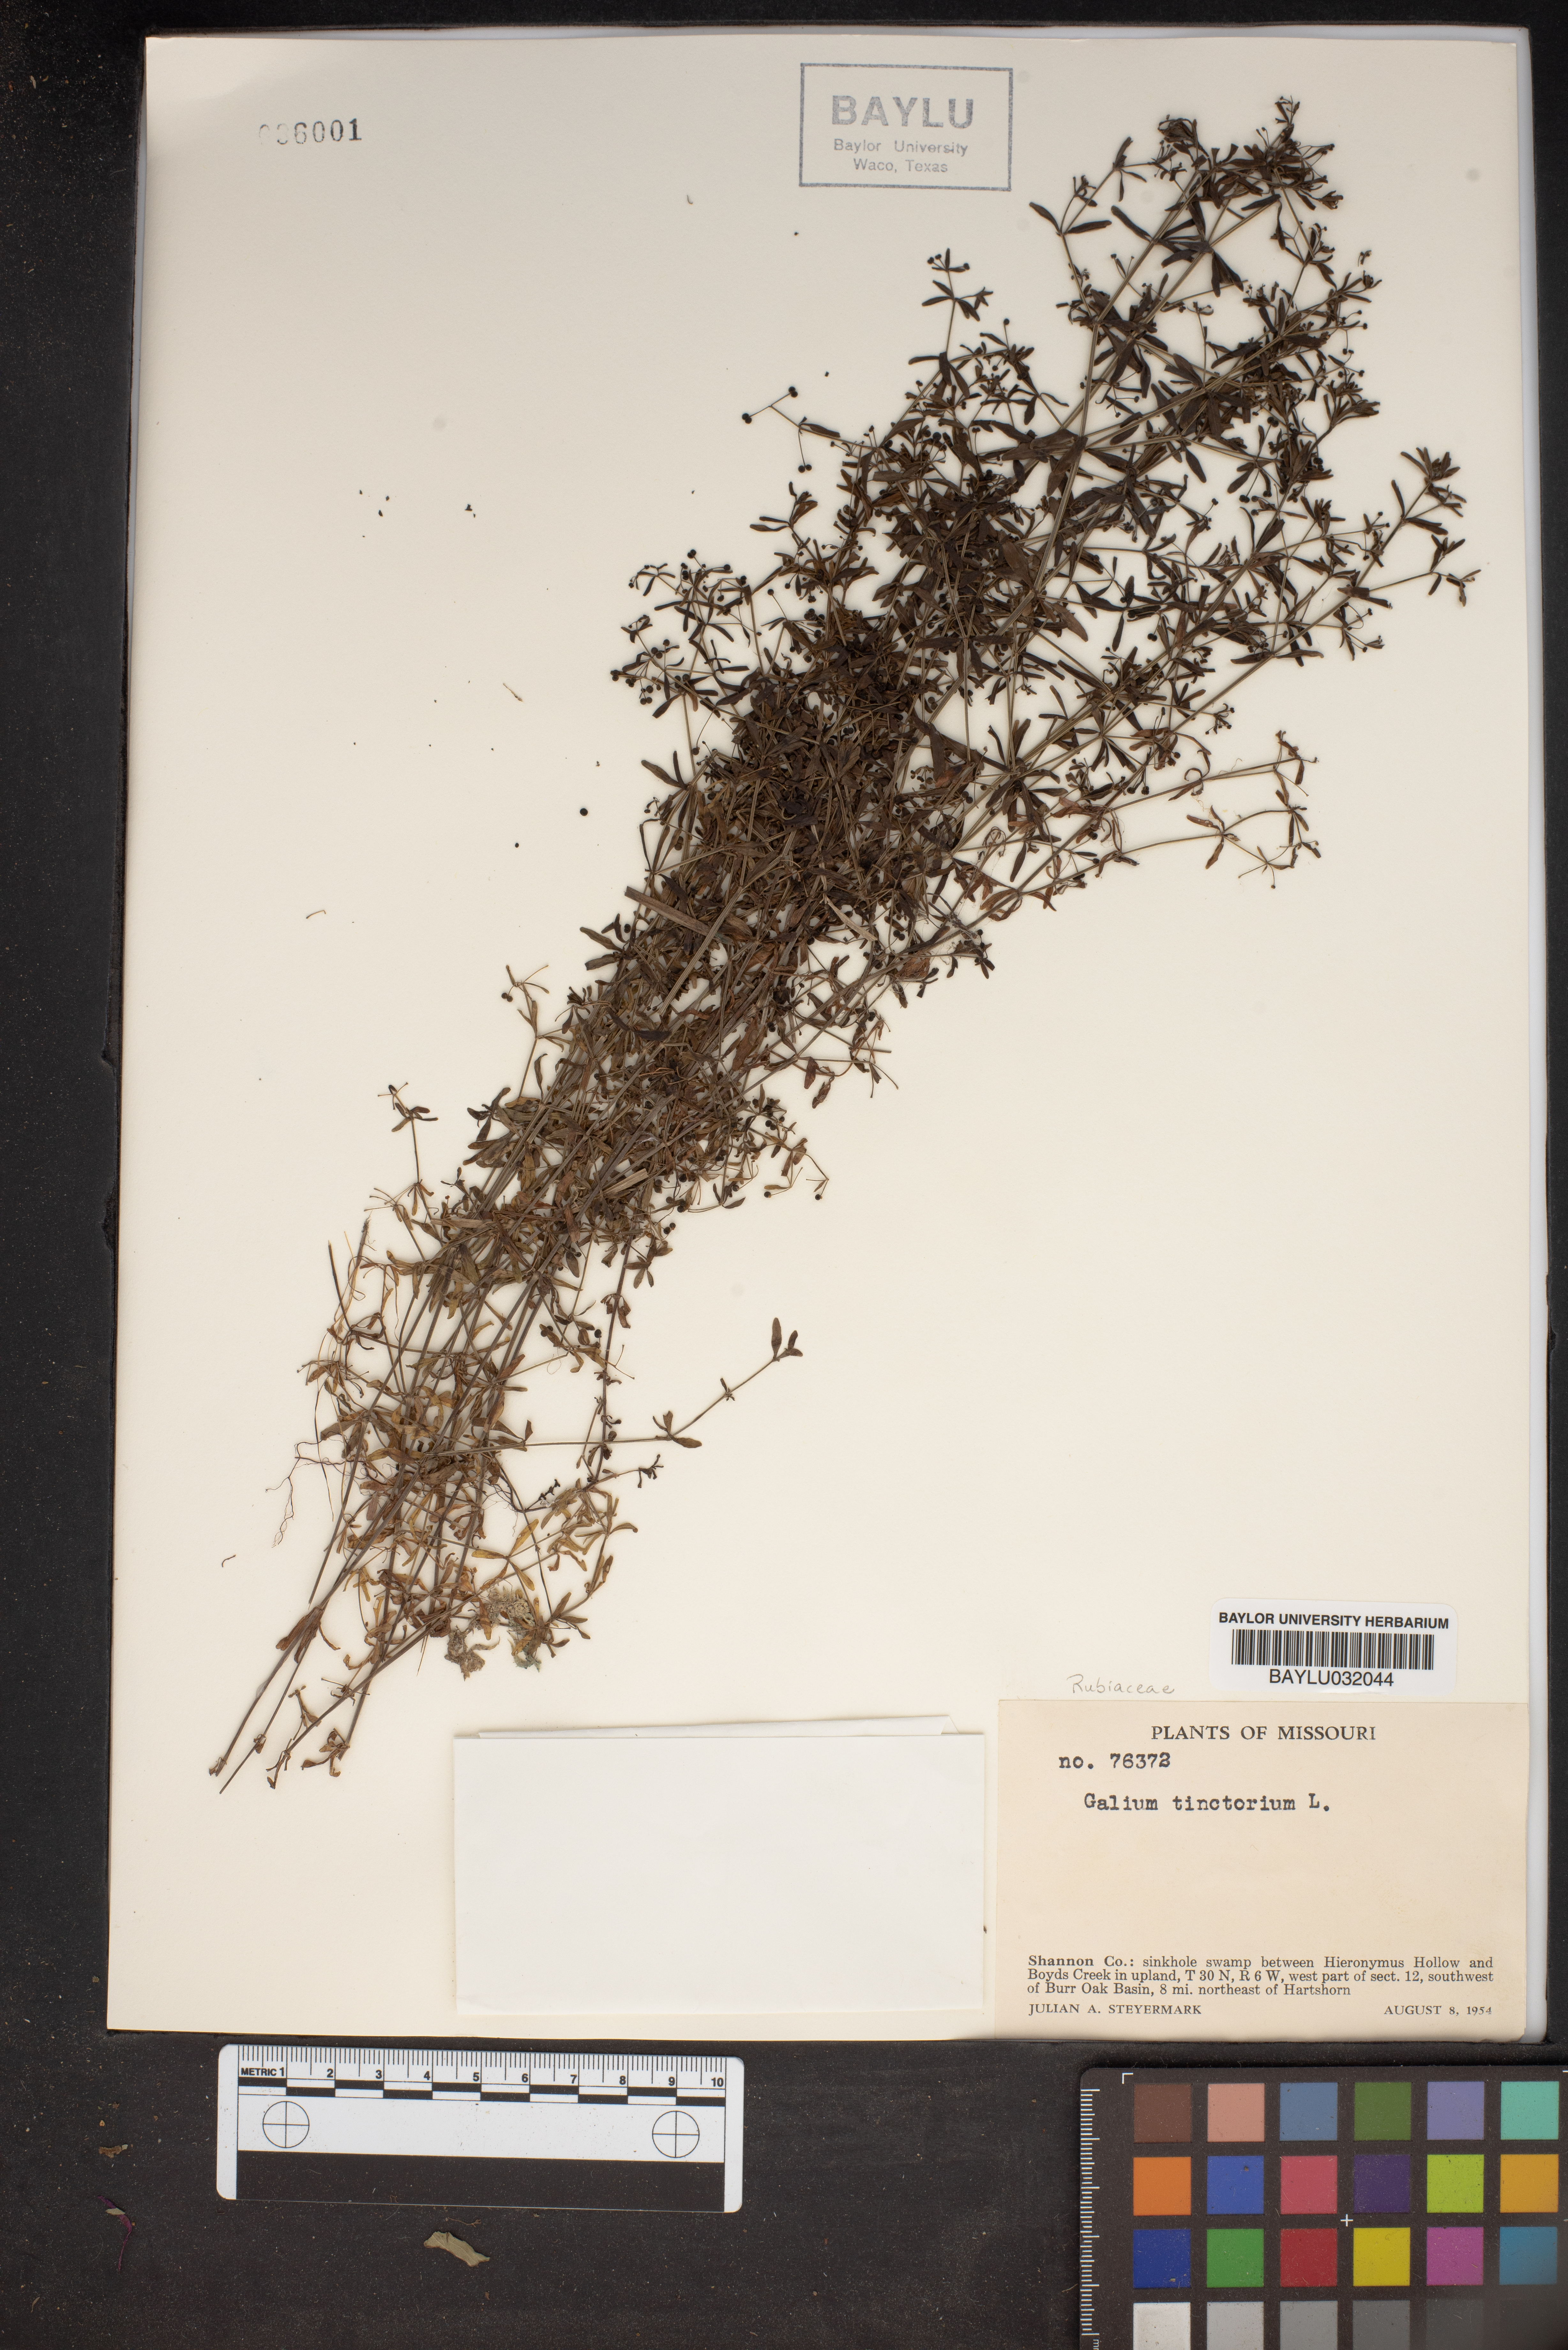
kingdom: Plantae
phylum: Tracheophyta
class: Magnoliopsida
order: Gentianales
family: Rubiaceae
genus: Asperula
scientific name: Asperula tinctoria
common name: Dyer's woodruff
